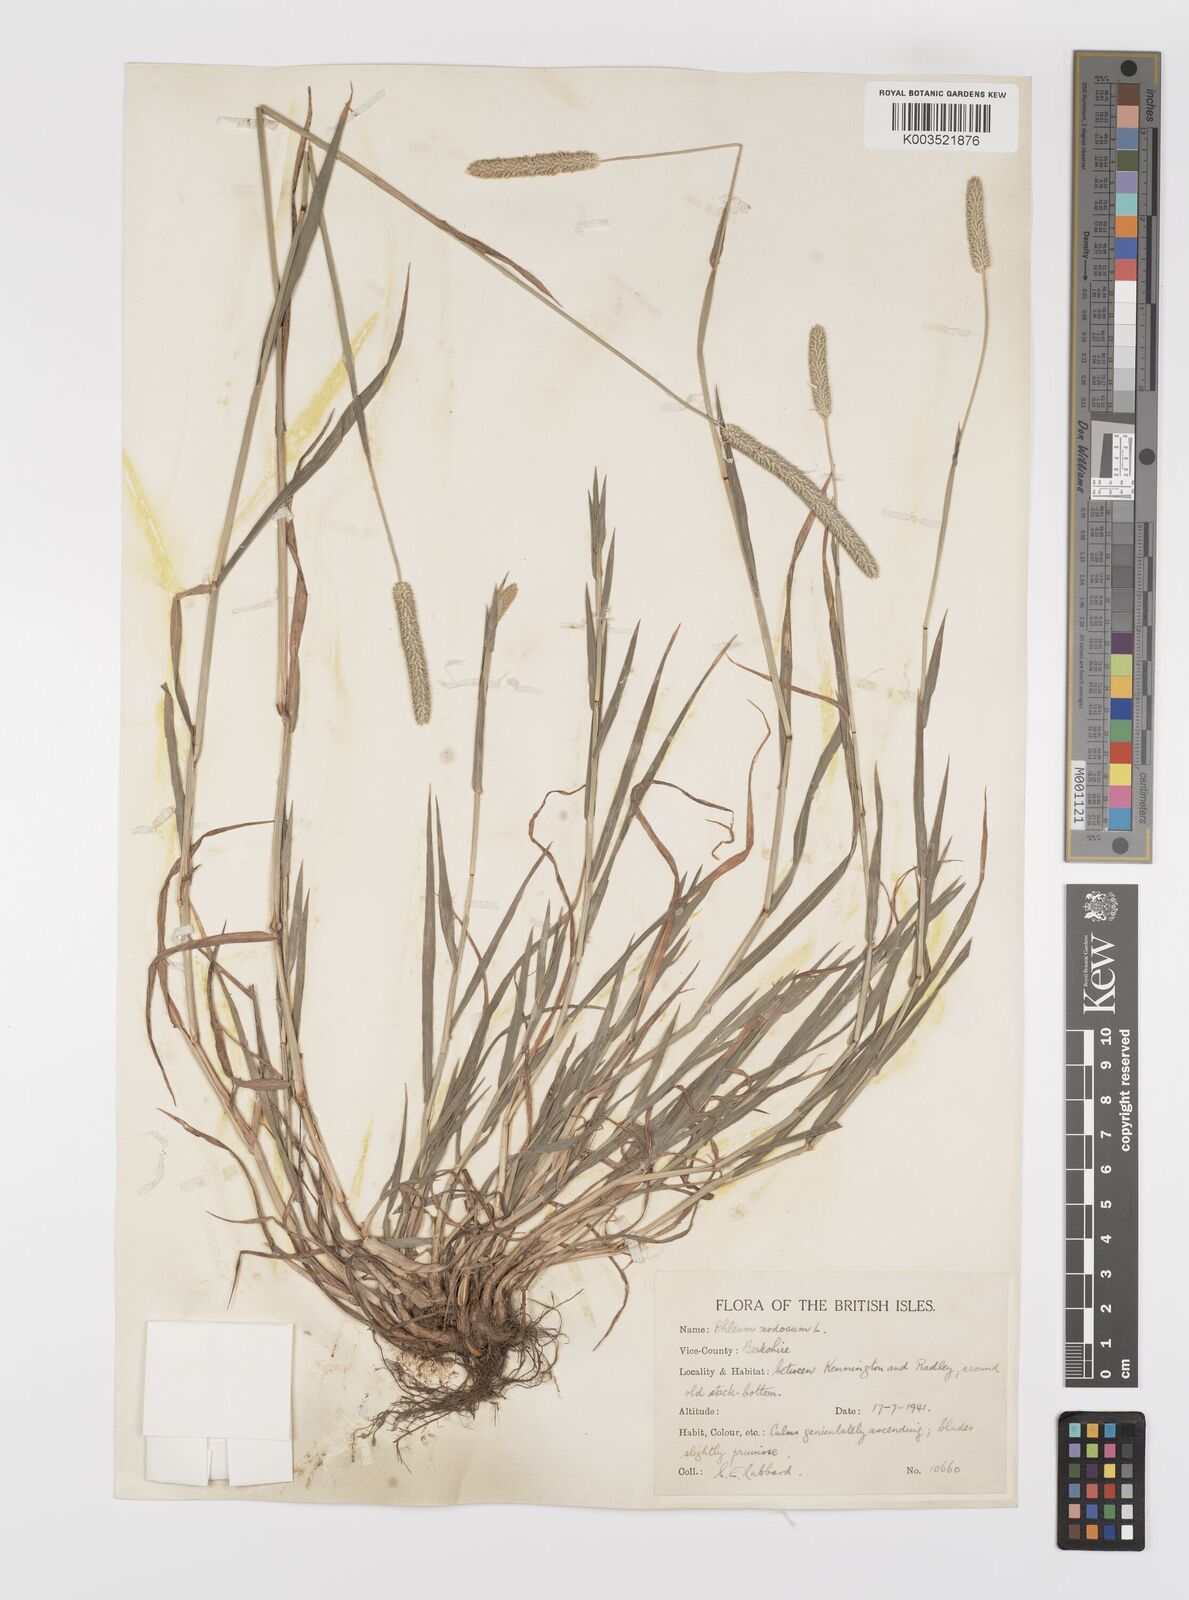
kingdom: Plantae
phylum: Tracheophyta
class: Liliopsida
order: Poales
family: Poaceae
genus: Phleum
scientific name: Phleum bertolonii
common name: Smaller cat's-tail
